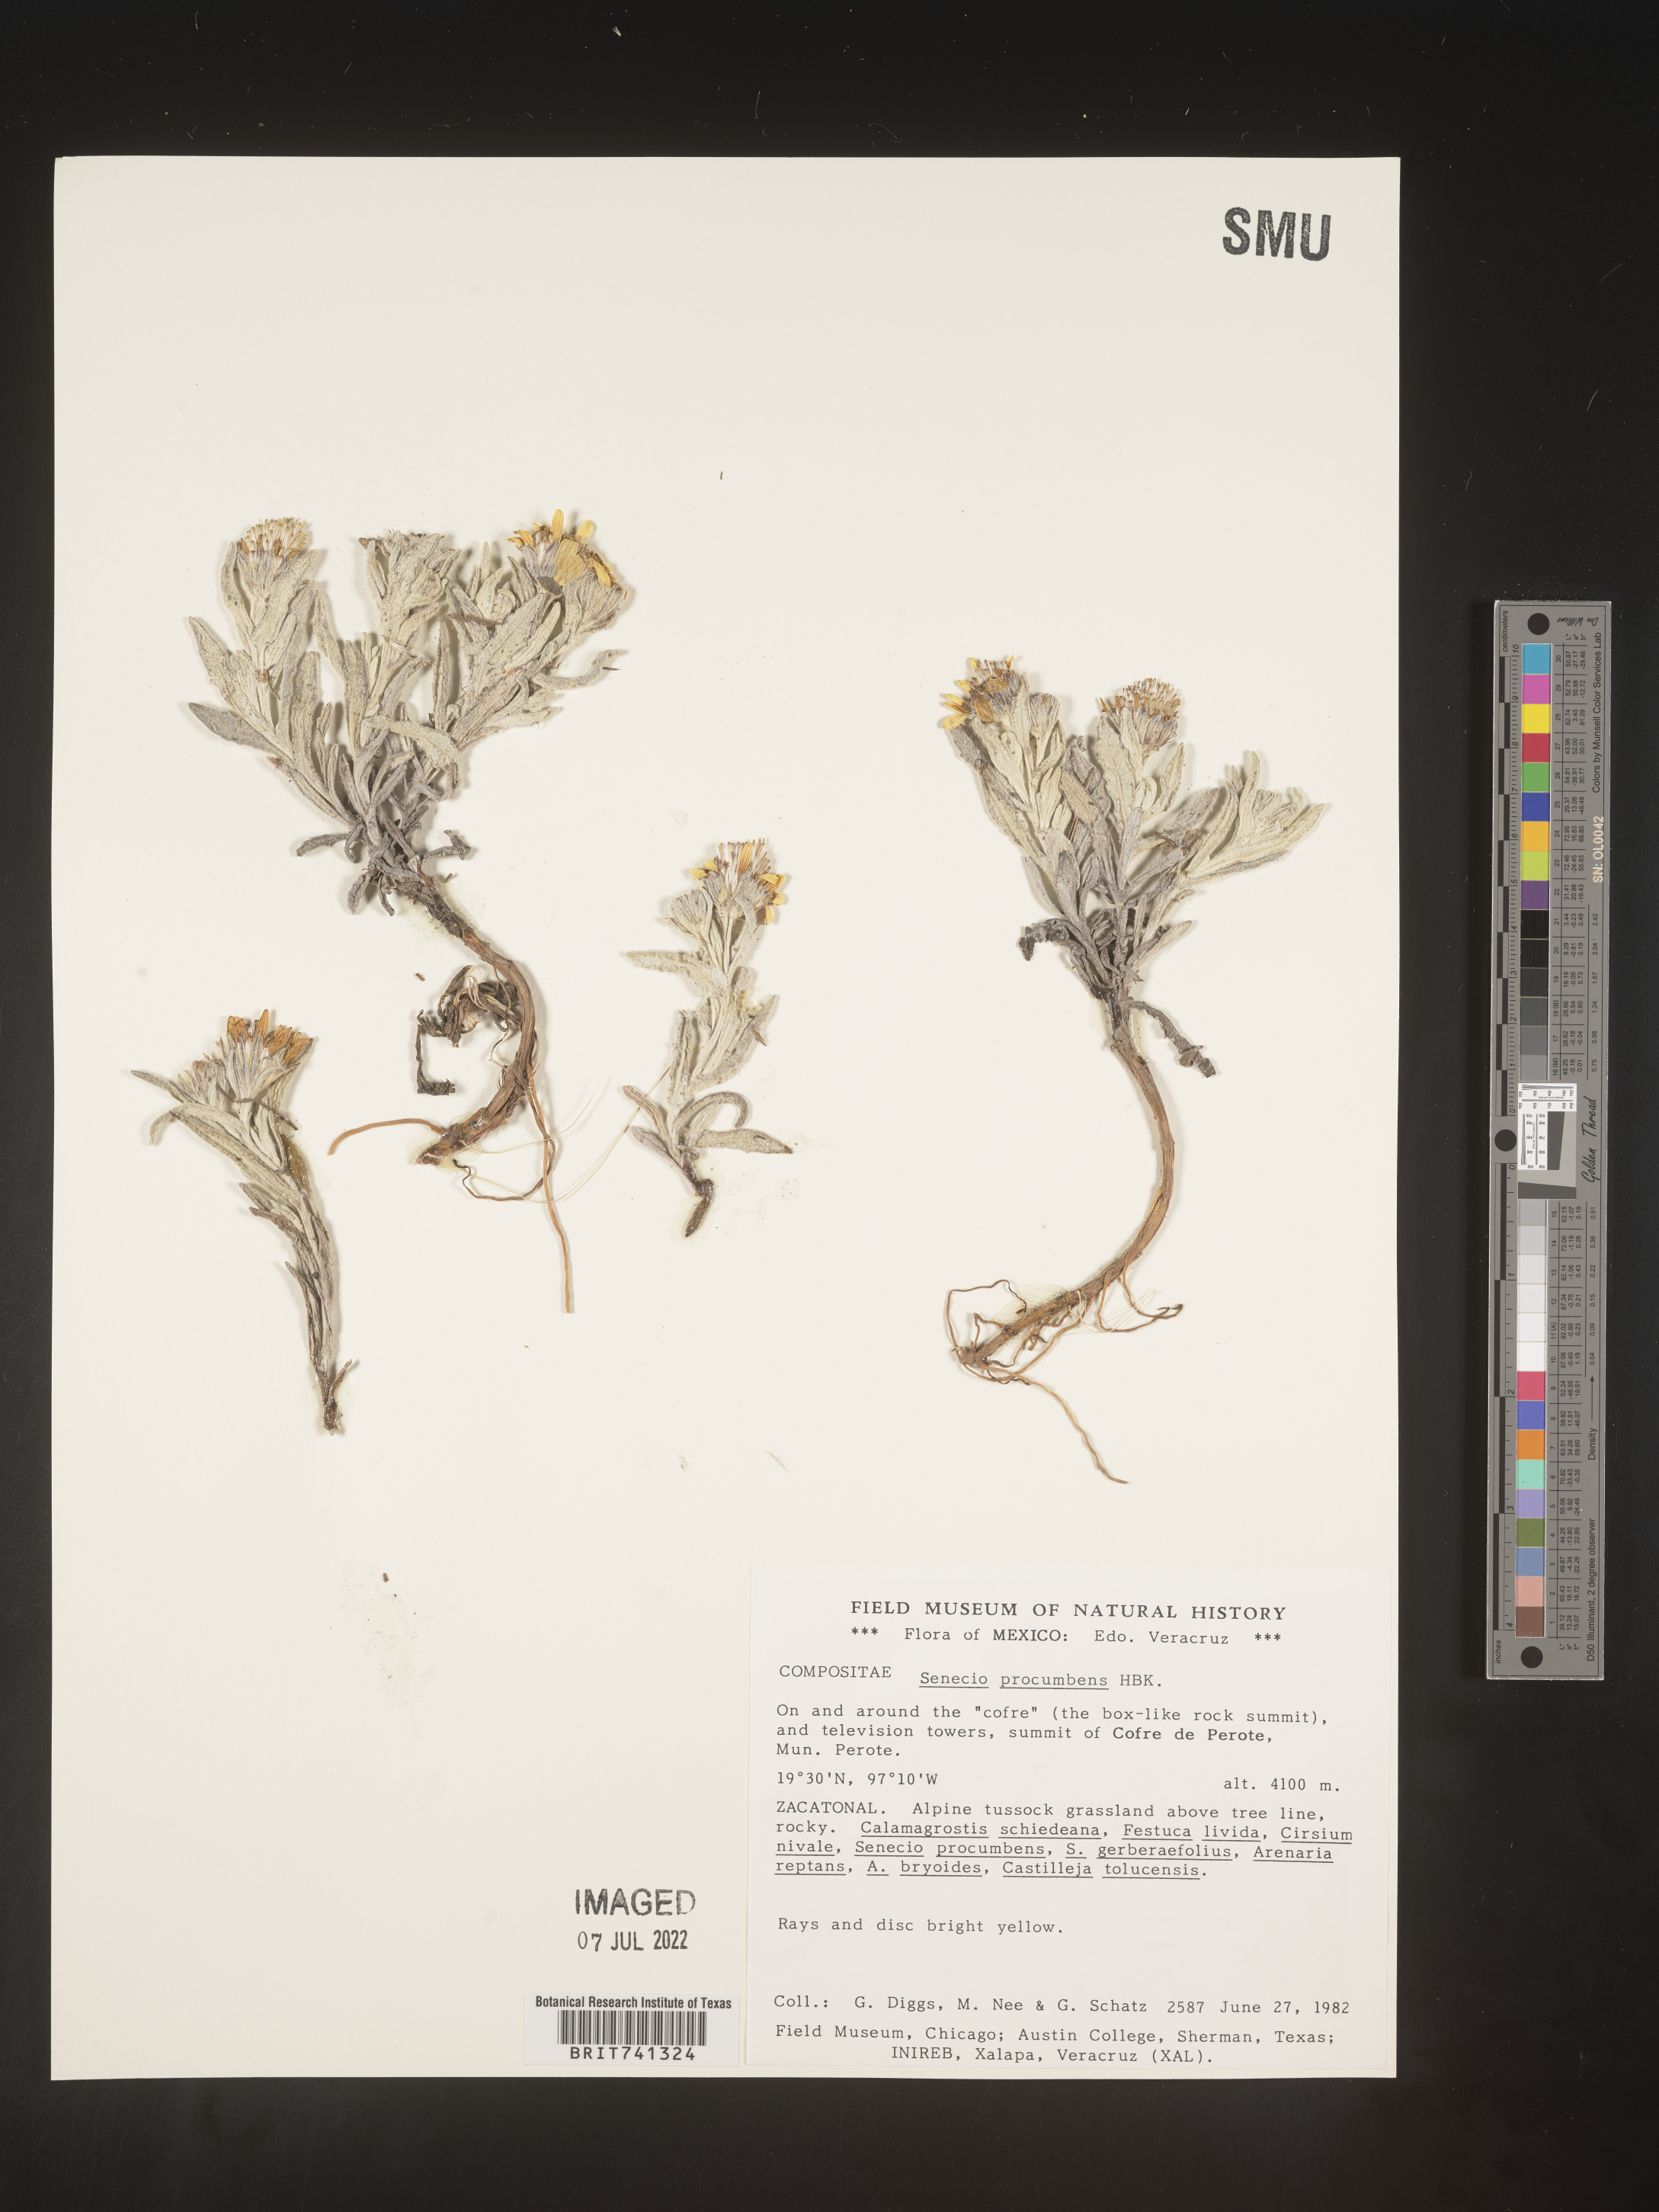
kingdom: Plantae
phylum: Tracheophyta
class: Magnoliopsida
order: Asterales
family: Asteraceae
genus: Senecio
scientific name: Senecio procumbens
